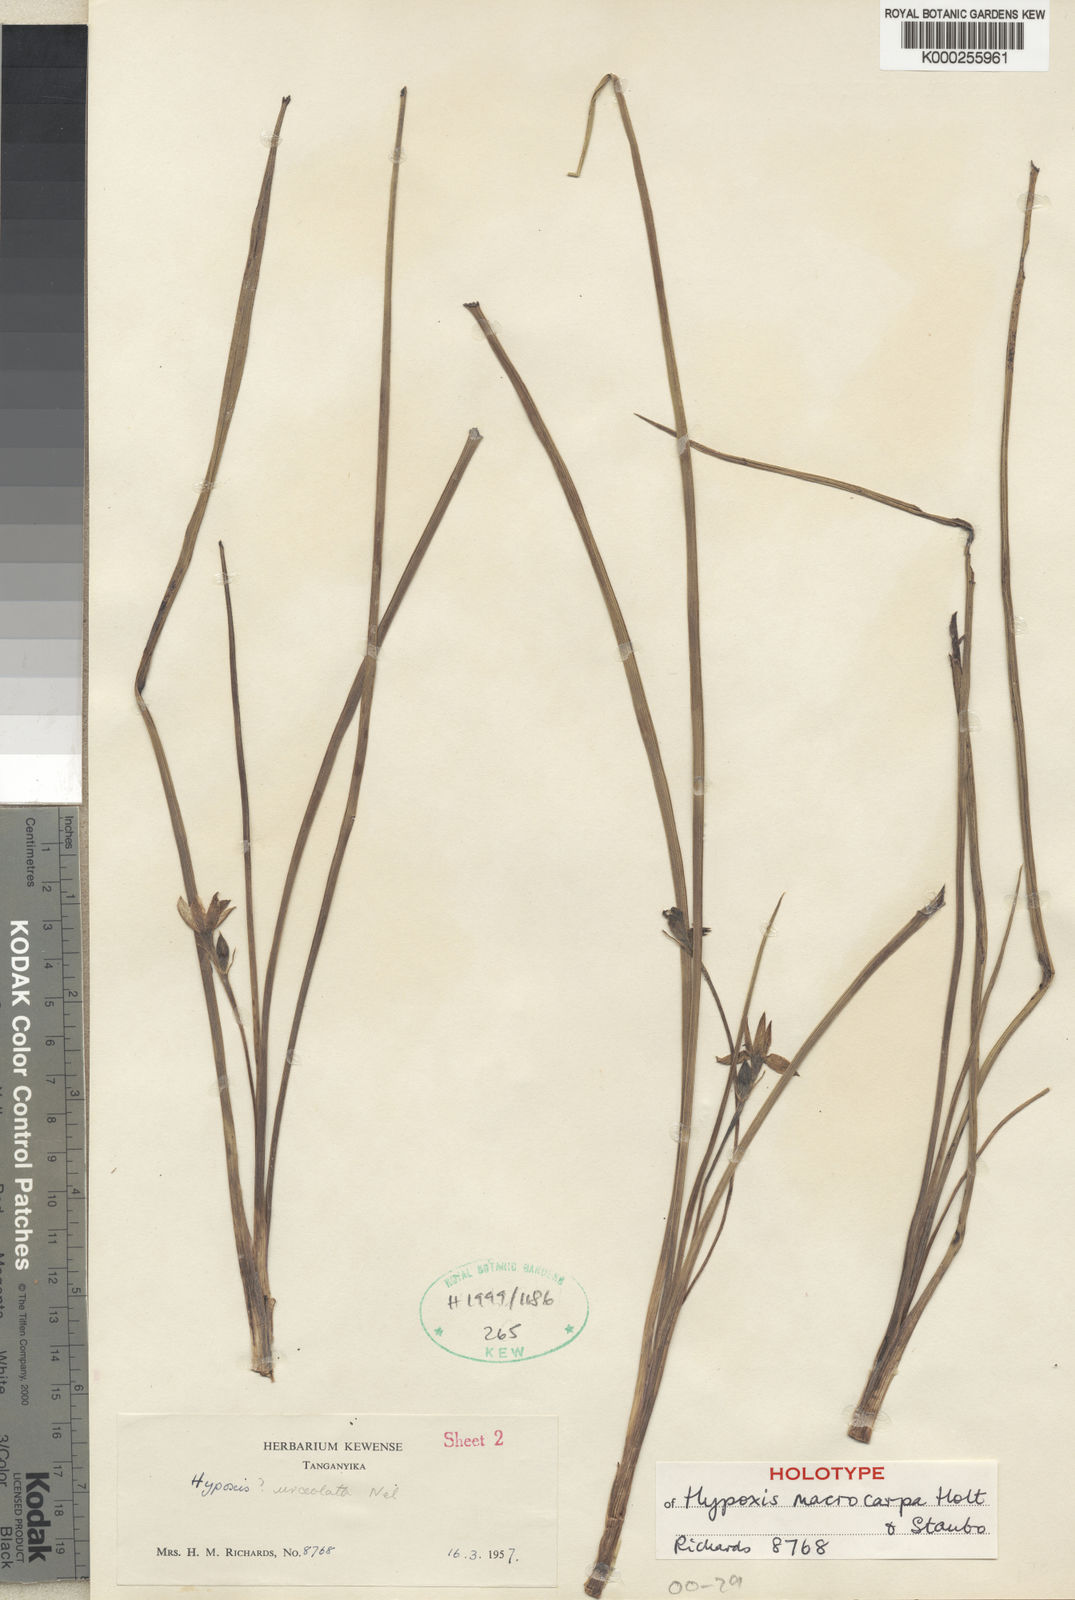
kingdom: Plantae
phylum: Tracheophyta
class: Liliopsida
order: Asparagales
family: Hypoxidaceae
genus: Hypoxis
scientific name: Hypoxis cuanzensis
